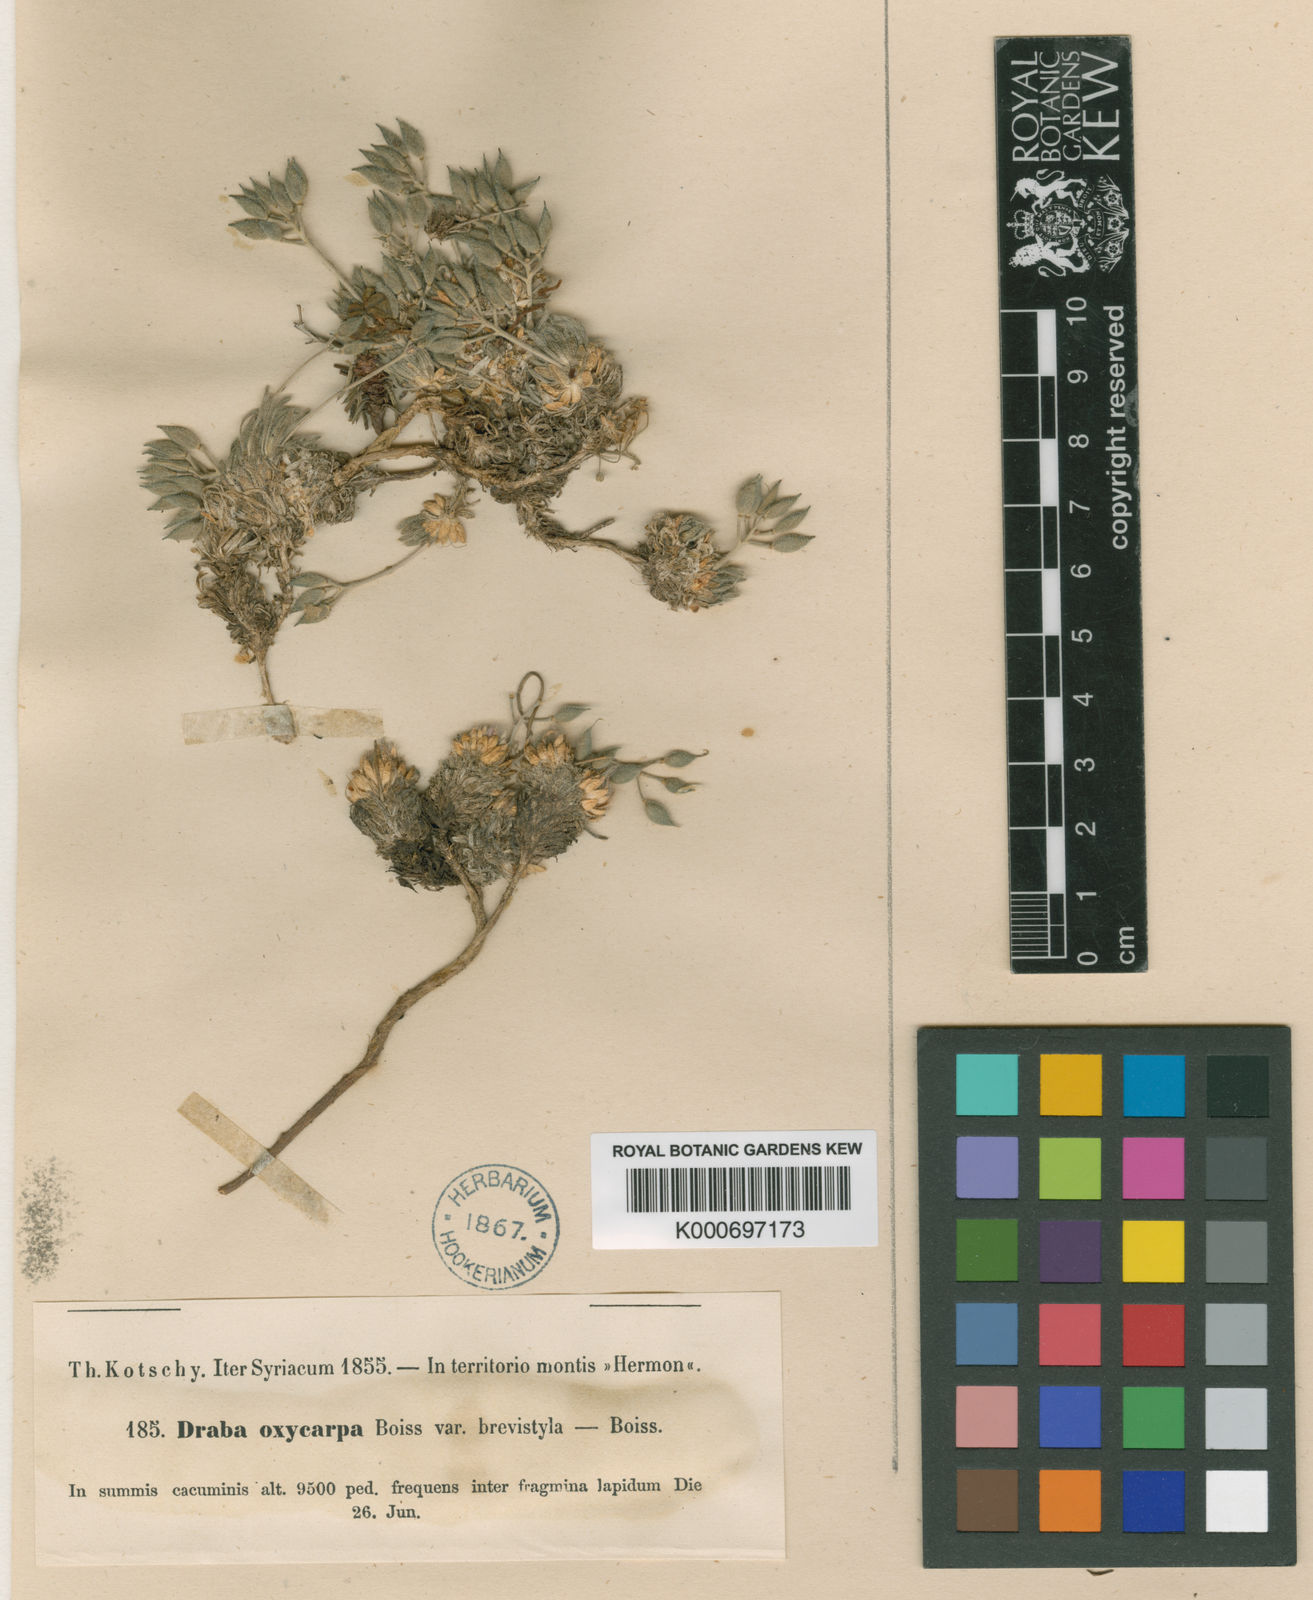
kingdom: Plantae
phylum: Tracheophyta
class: Magnoliopsida
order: Brassicales
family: Brassicaceae
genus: Draba
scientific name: Draba oxycarpa
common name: Sharp-fruited whitlow-grass
